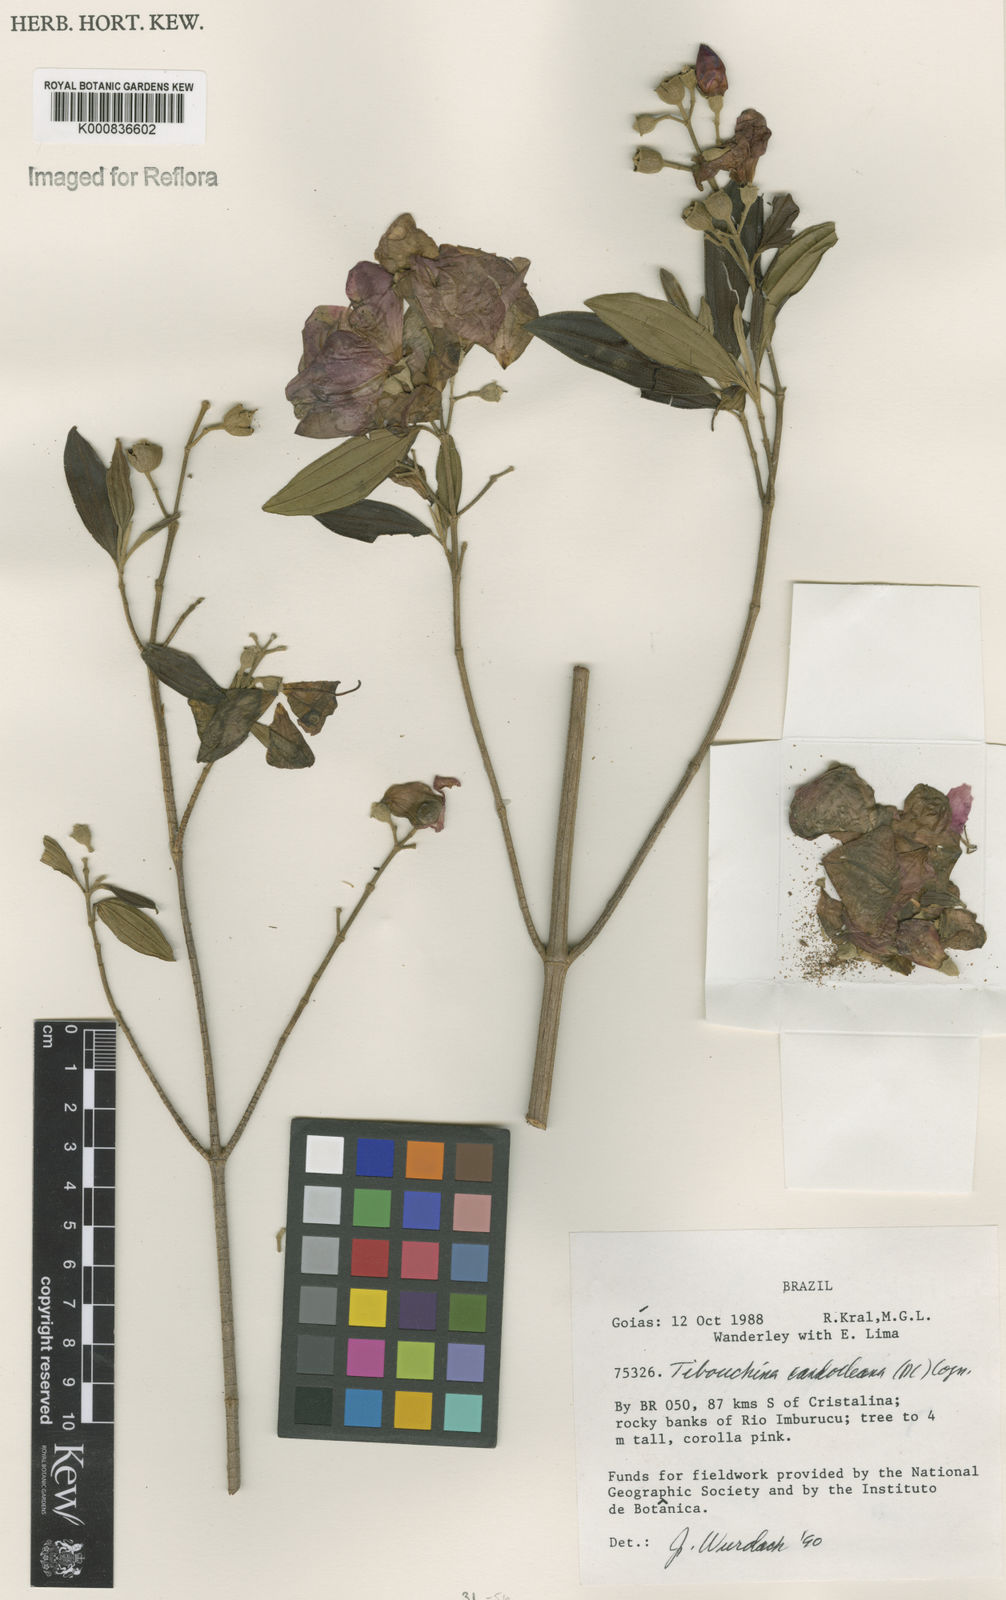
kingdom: Plantae
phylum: Tracheophyta
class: Magnoliopsida
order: Myrtales
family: Melastomataceae
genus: Pleroma
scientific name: Pleroma candolleanum
